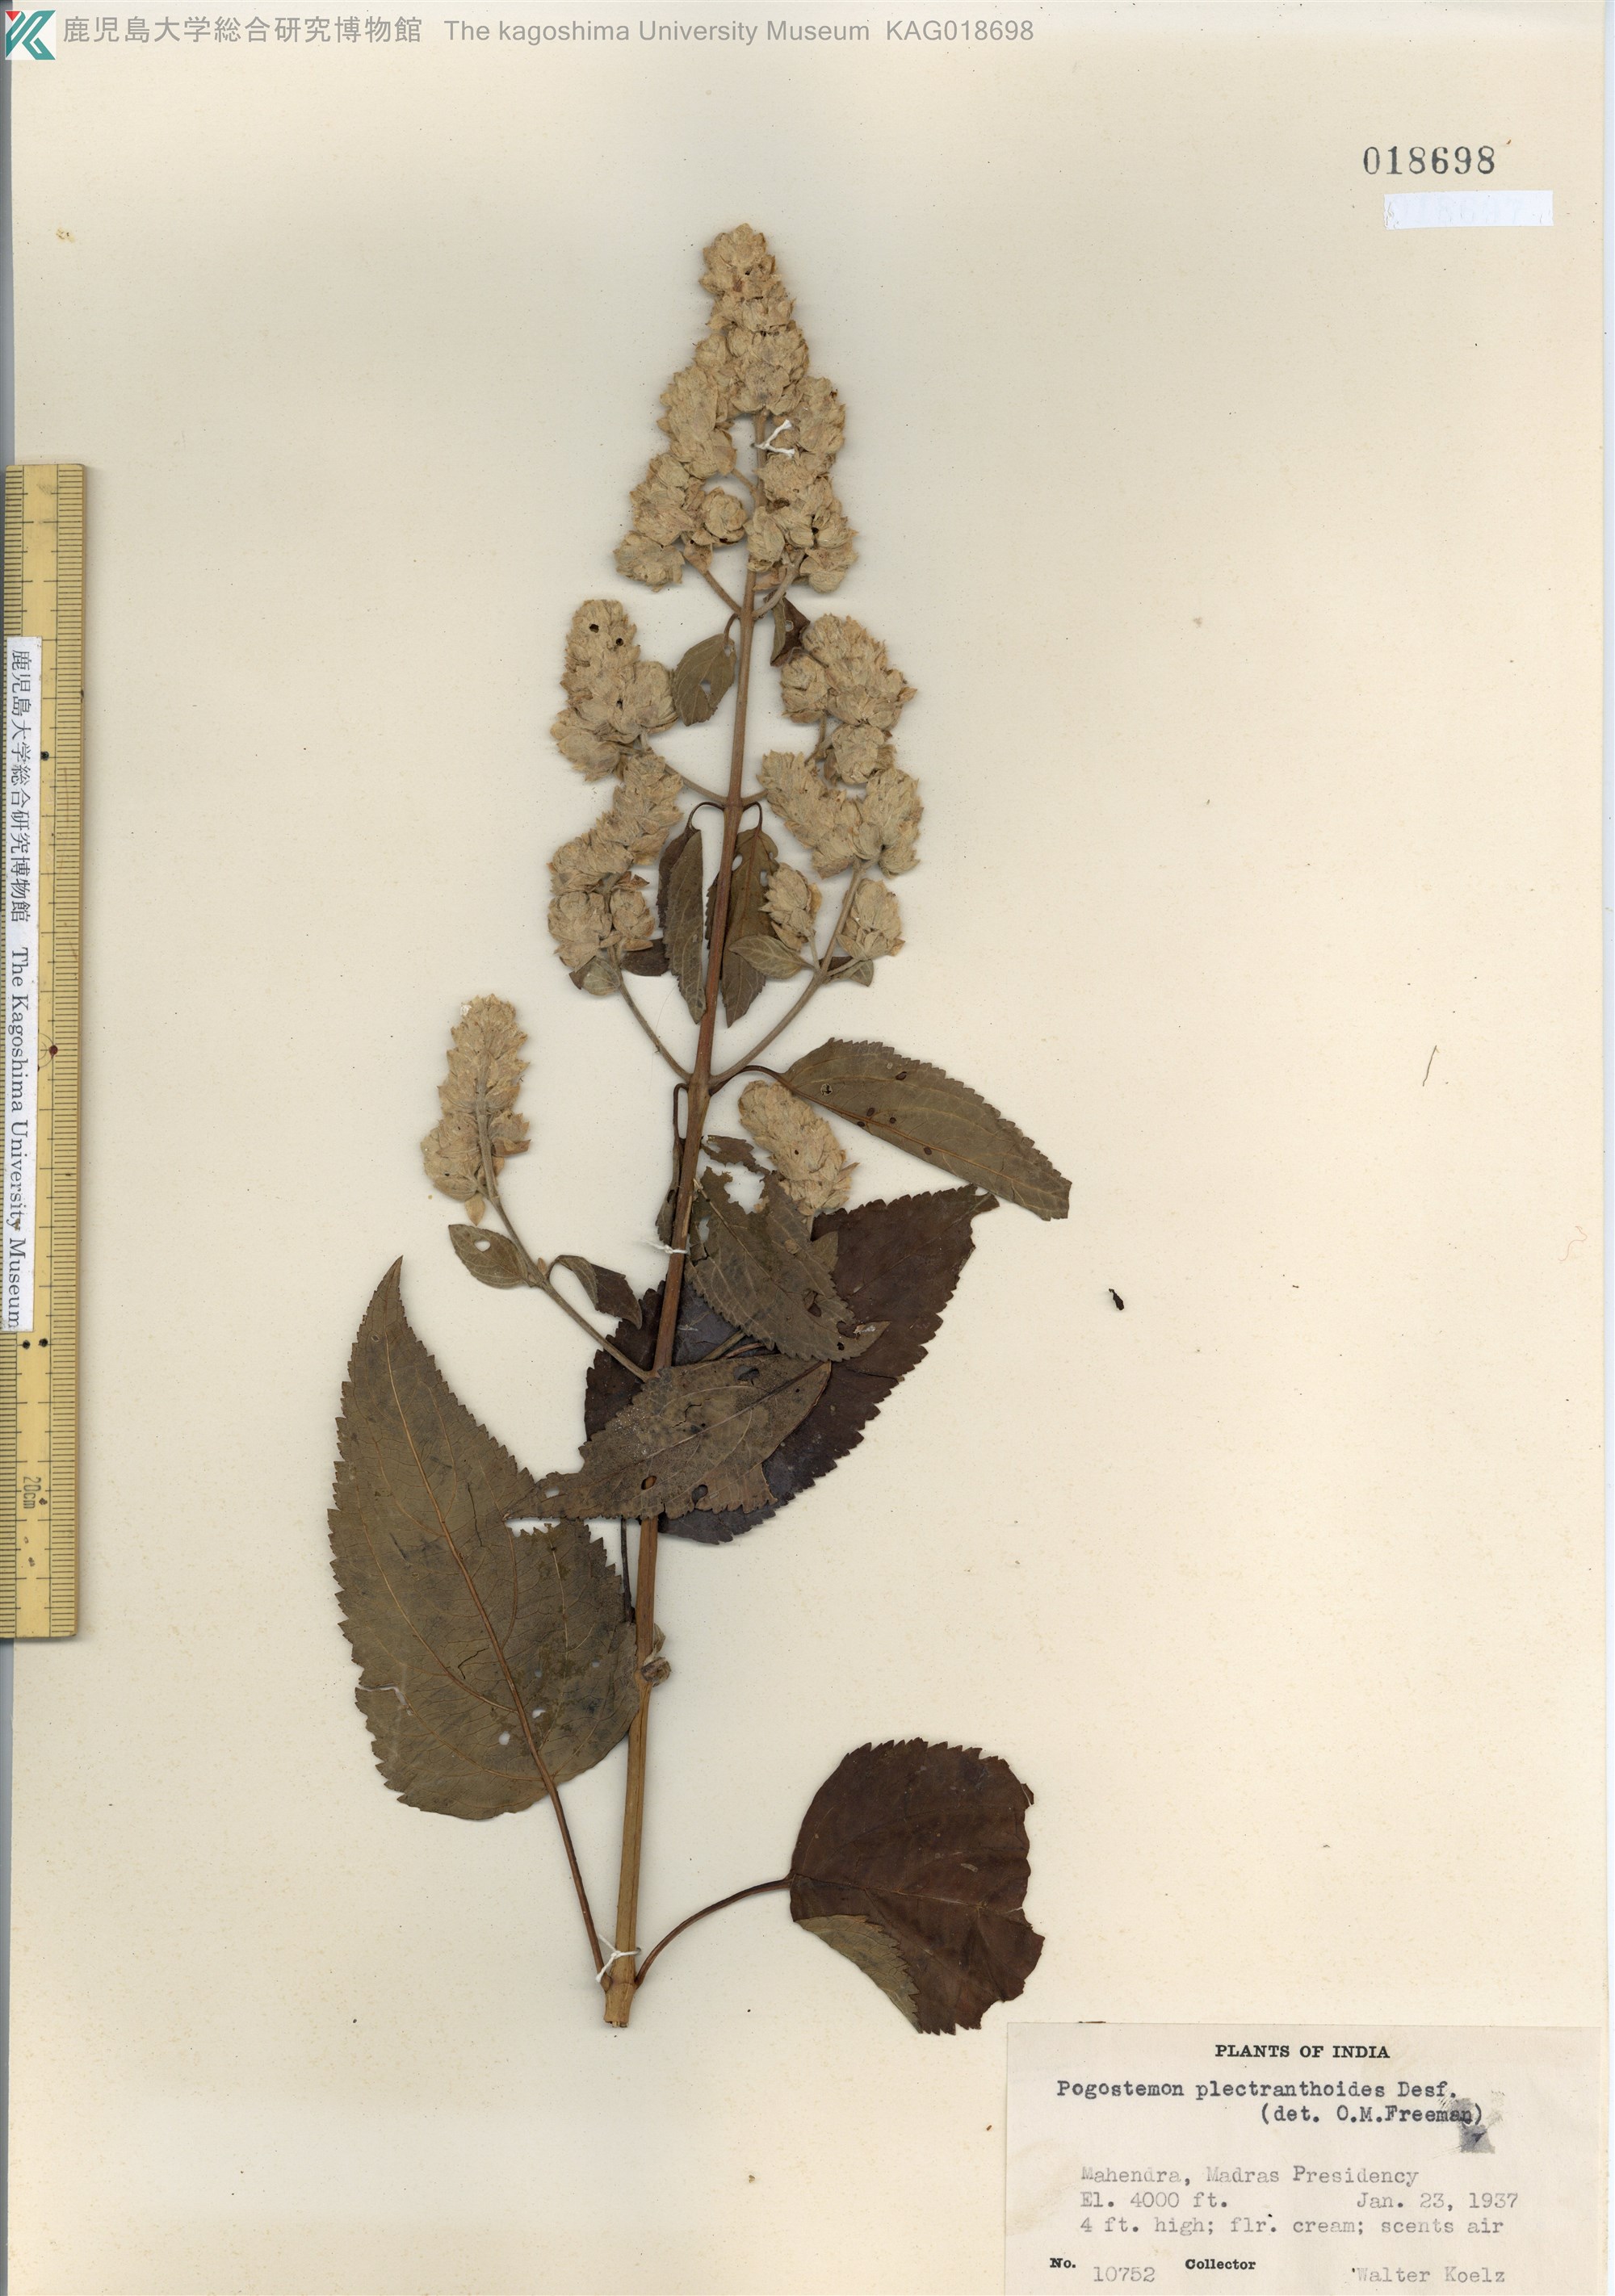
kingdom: Plantae
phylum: Tracheophyta
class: Magnoliopsida
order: Lamiales
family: Lamiaceae
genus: Pogostemon
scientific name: Pogostemon plectranthoides
